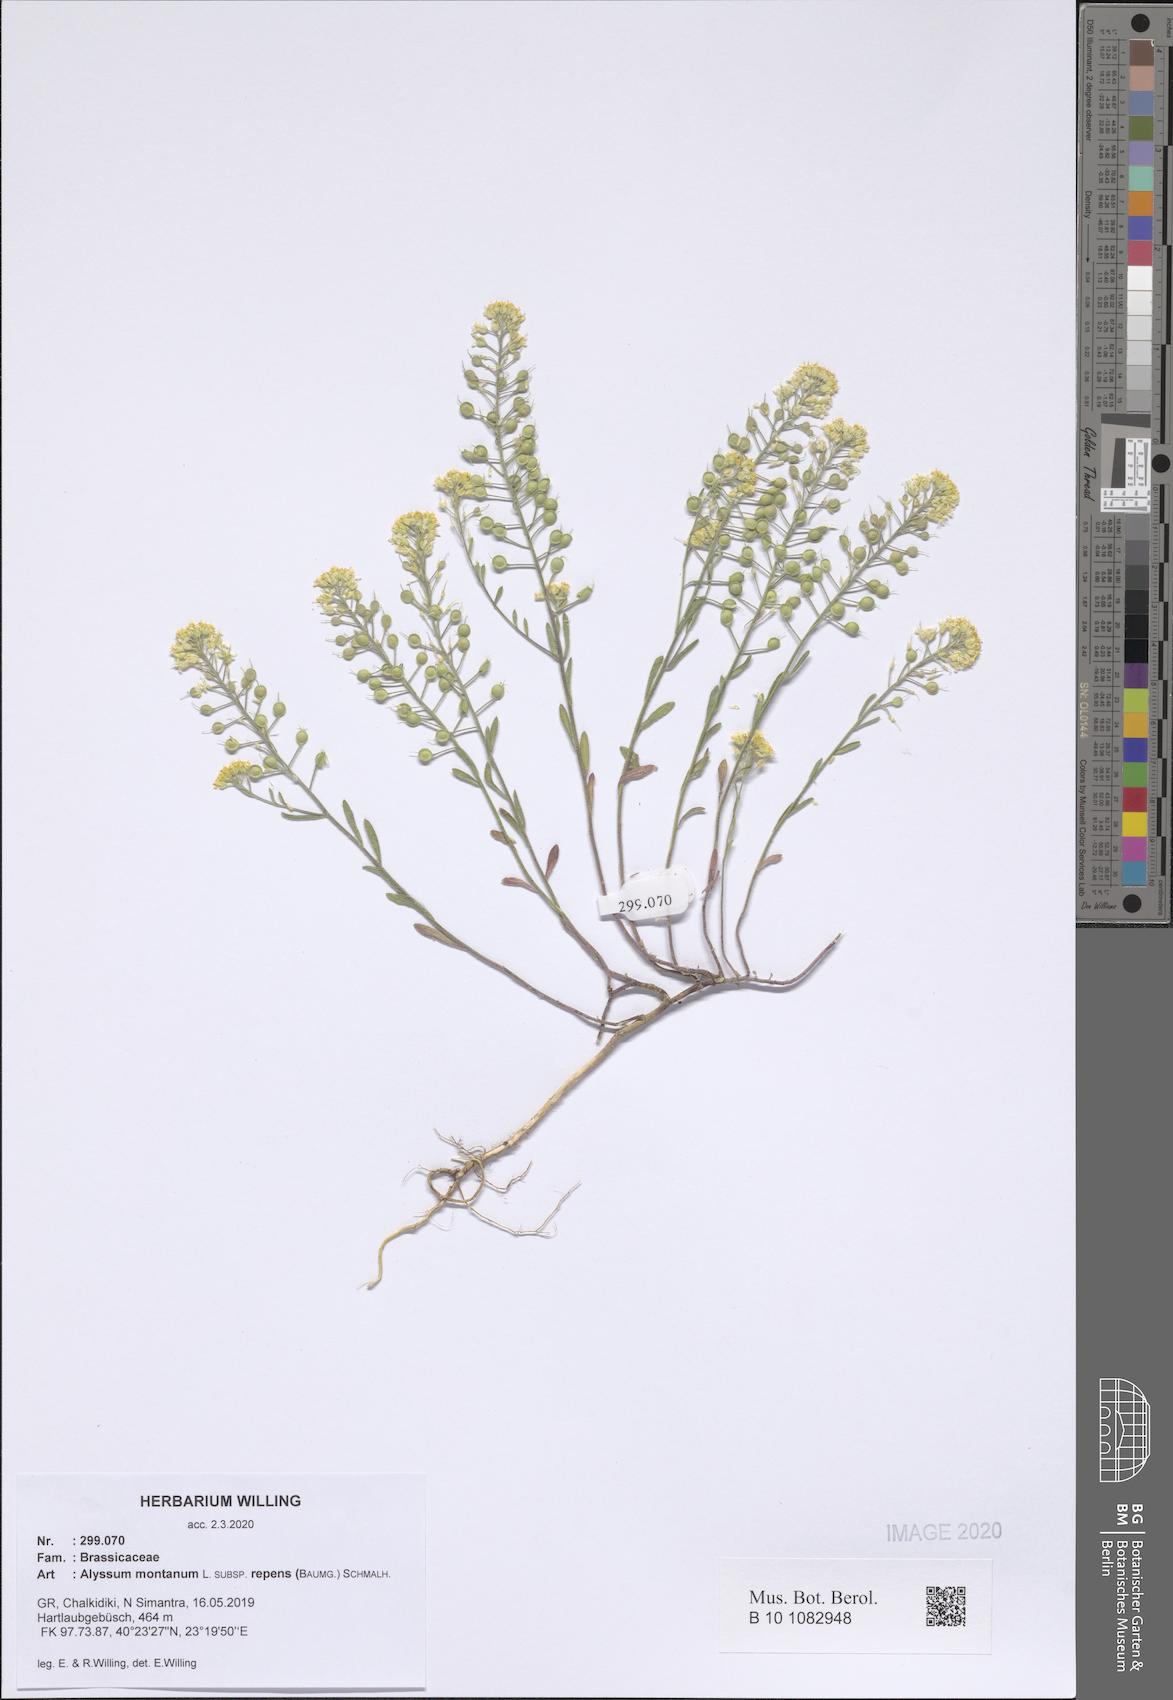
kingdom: Plantae
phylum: Tracheophyta
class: Magnoliopsida
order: Brassicales
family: Brassicaceae
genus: Alyssum
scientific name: Alyssum trichostachyum
